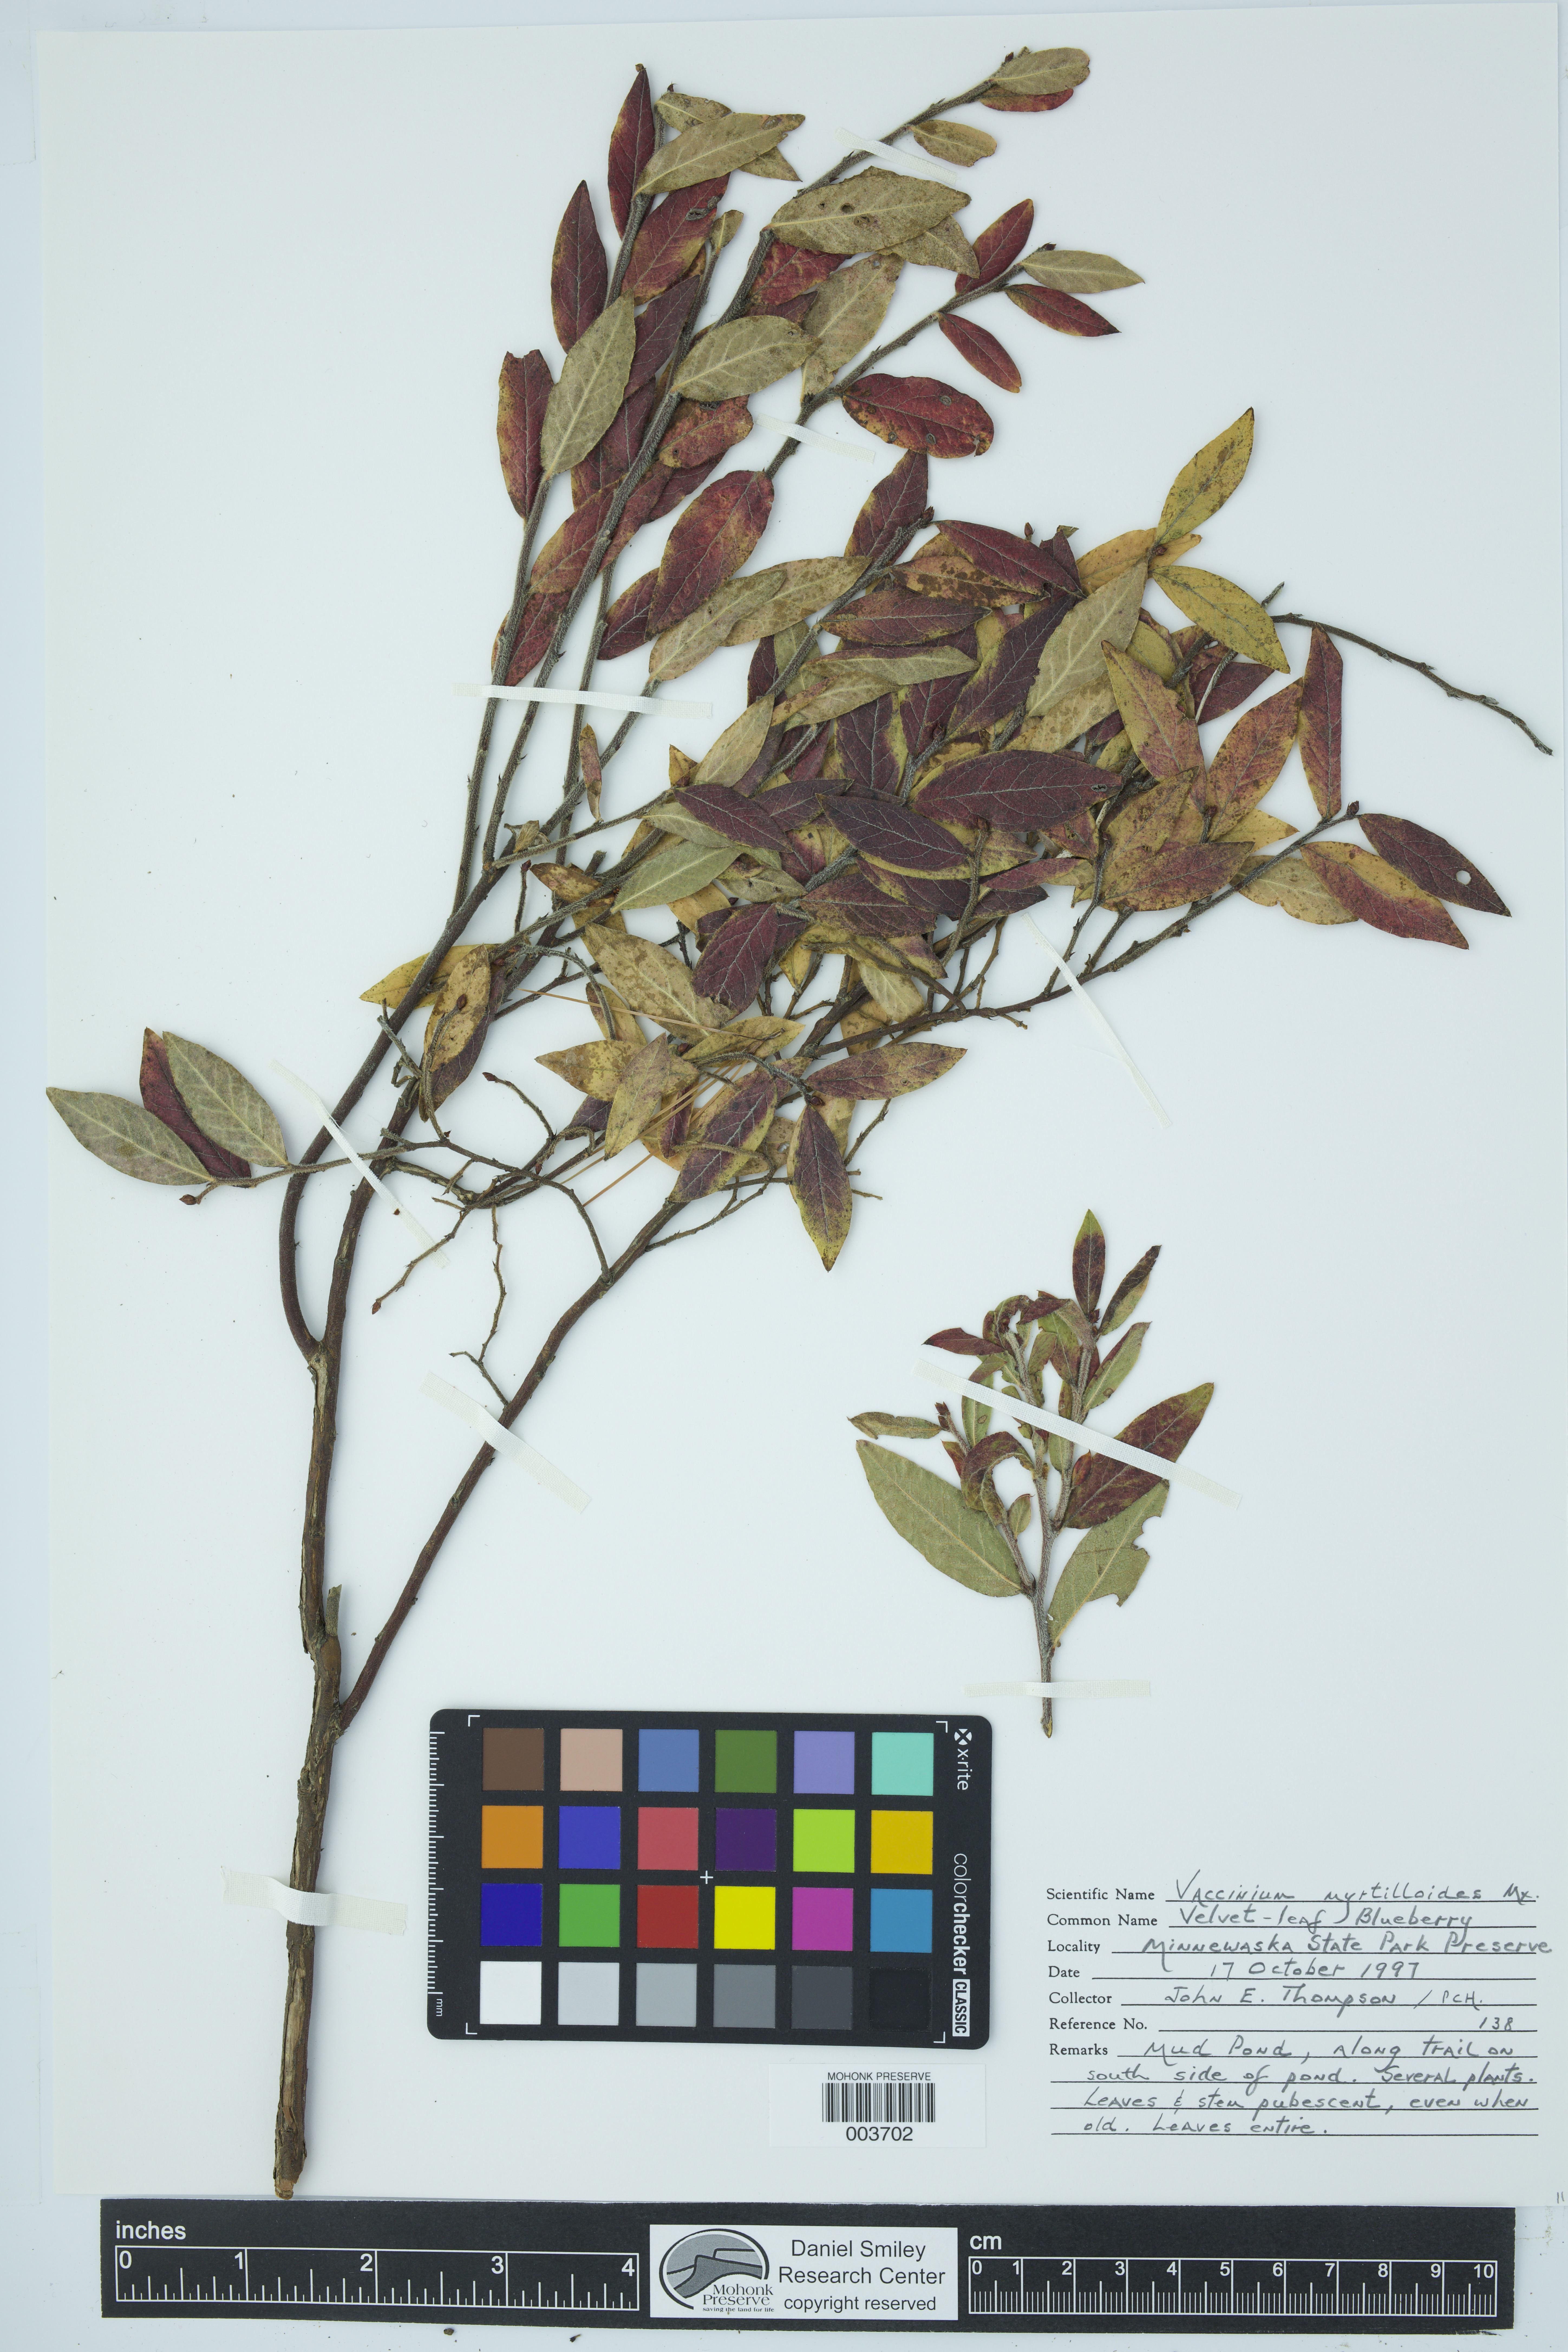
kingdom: Plantae
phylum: Tracheophyta
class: Magnoliopsida
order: Ericales
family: Ericaceae
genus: Vaccinium
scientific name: Vaccinium myrtilloides
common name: Canada blueberry
